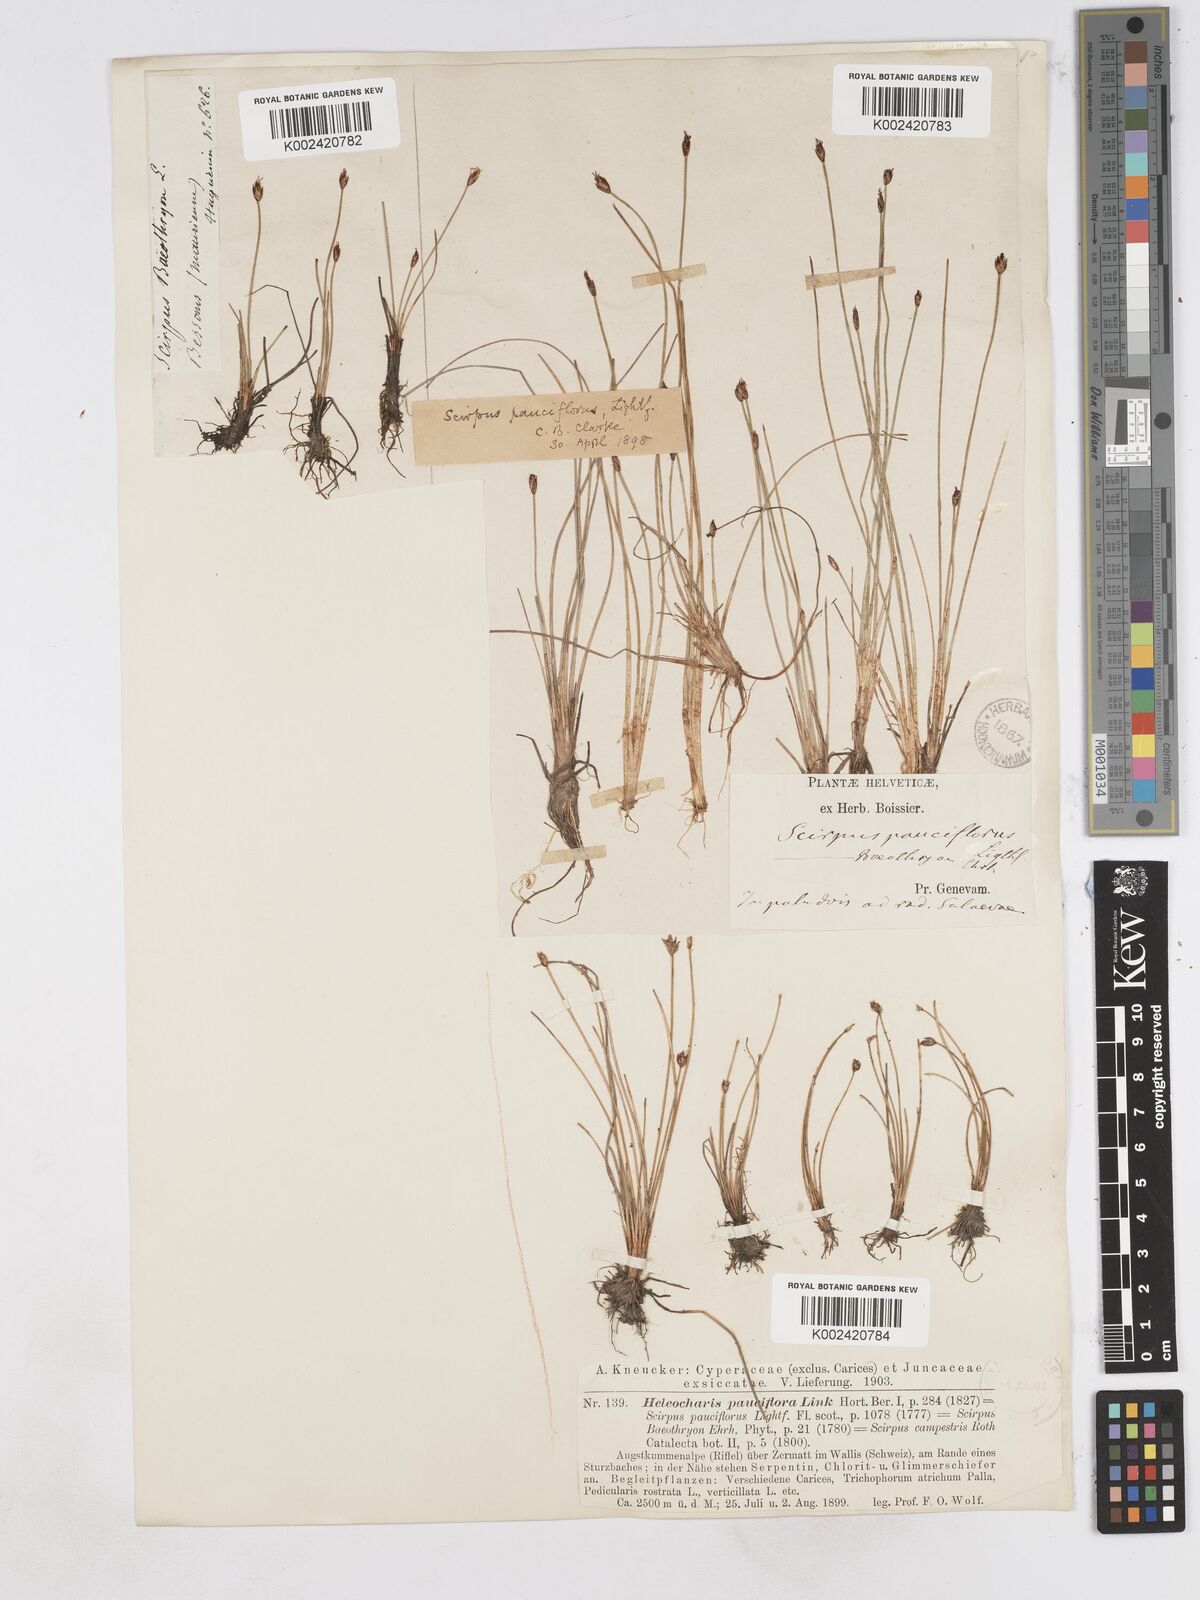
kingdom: Plantae
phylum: Tracheophyta
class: Liliopsida
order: Poales
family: Cyperaceae
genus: Eleocharis
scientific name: Eleocharis quinqueflora
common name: Few-flowered spike-rush
